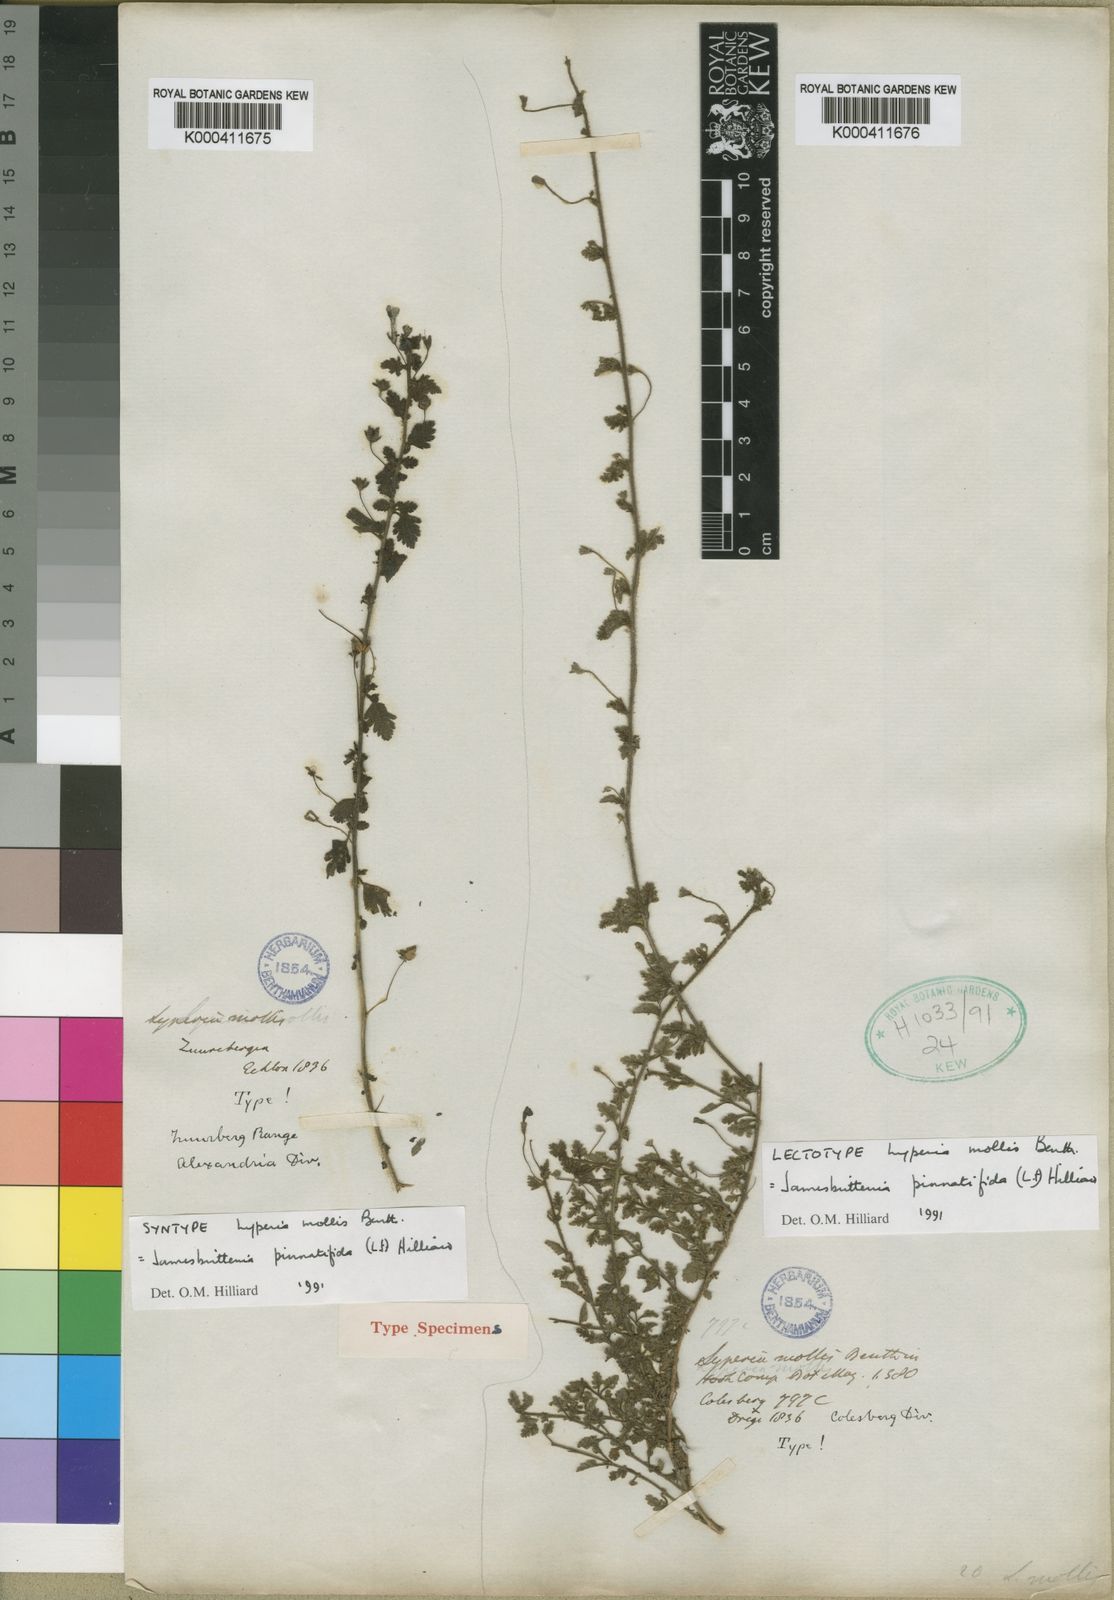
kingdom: Plantae
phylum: Tracheophyta
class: Magnoliopsida
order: Lamiales
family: Scrophulariaceae
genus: Jamesbrittenia
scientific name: Jamesbrittenia pinnatifida
